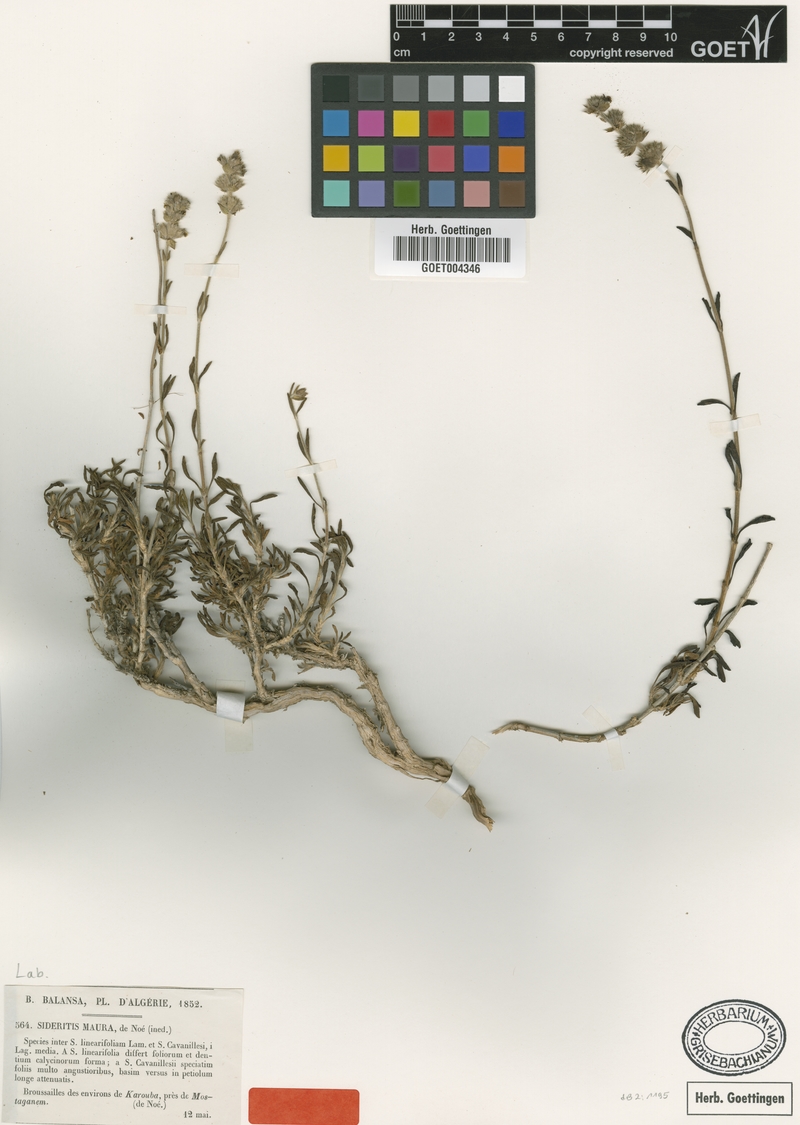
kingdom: Plantae
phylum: Tracheophyta
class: Magnoliopsida
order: Lamiales
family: Lamiaceae
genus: Sideritis
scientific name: Sideritis maura
